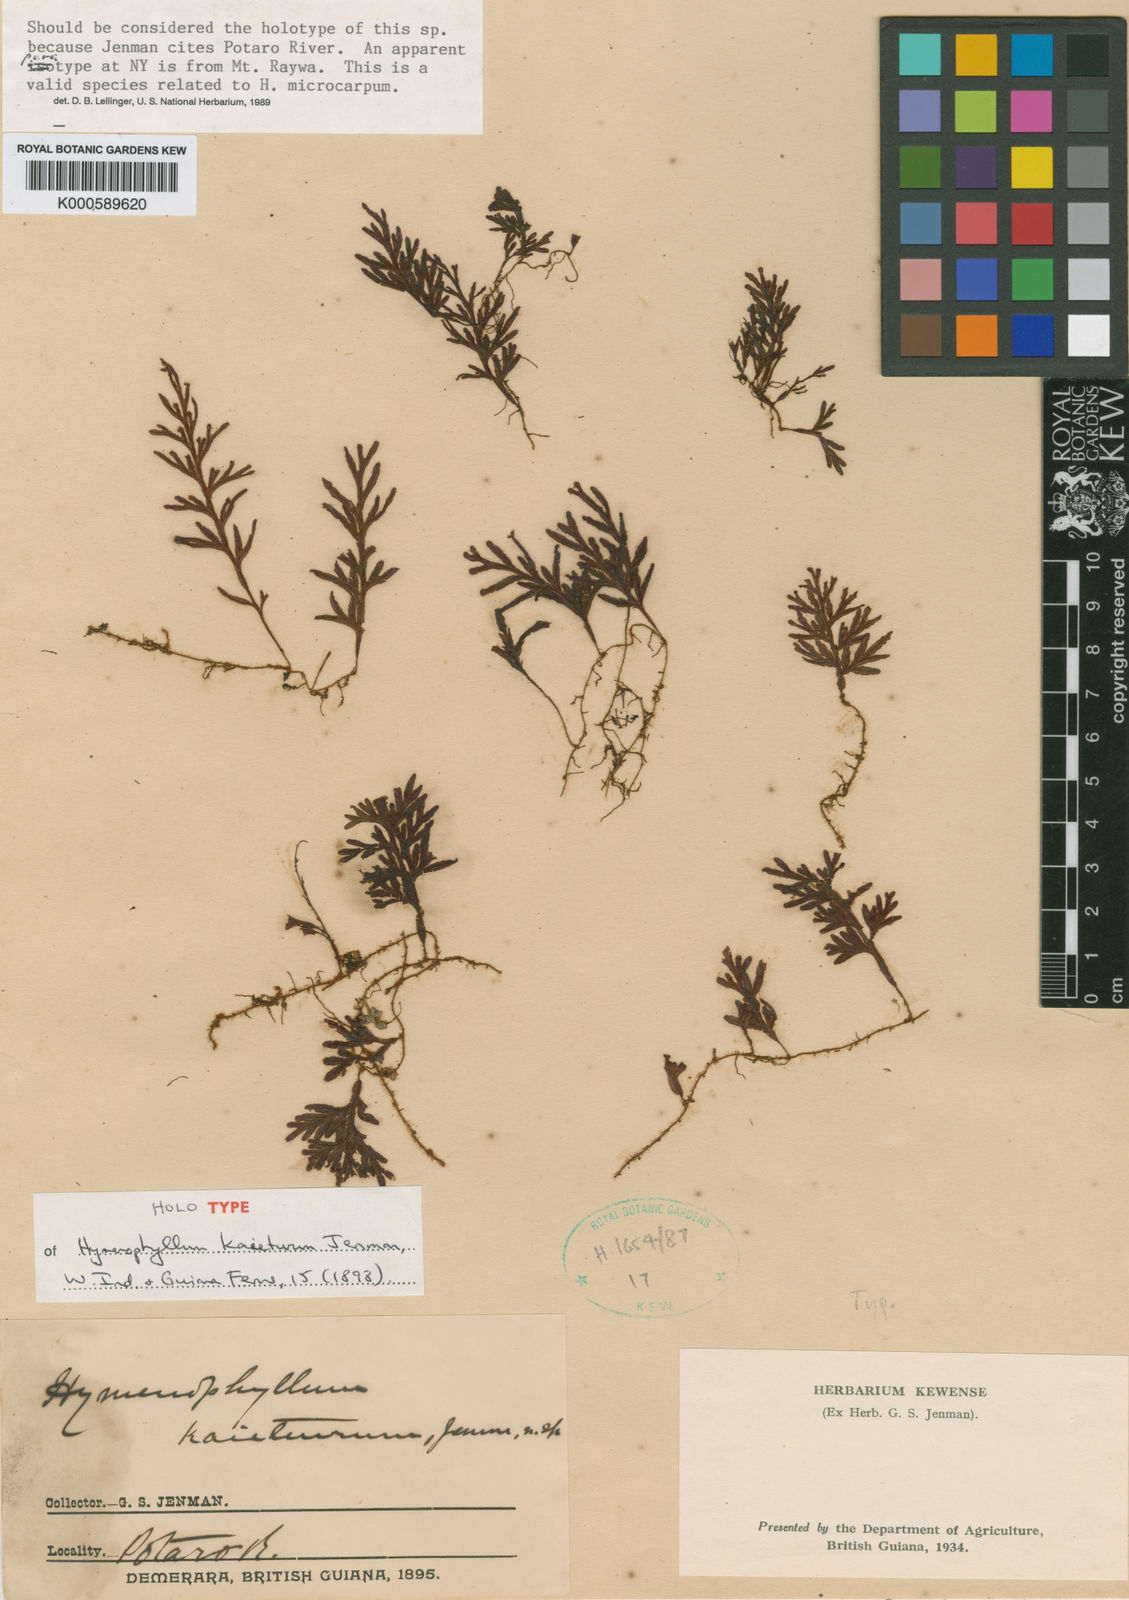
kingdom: Plantae
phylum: Tracheophyta
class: Polypodiopsida
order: Hymenophyllales
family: Hymenophyllaceae
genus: Hymenophyllum
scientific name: Hymenophyllum kaieteurum
